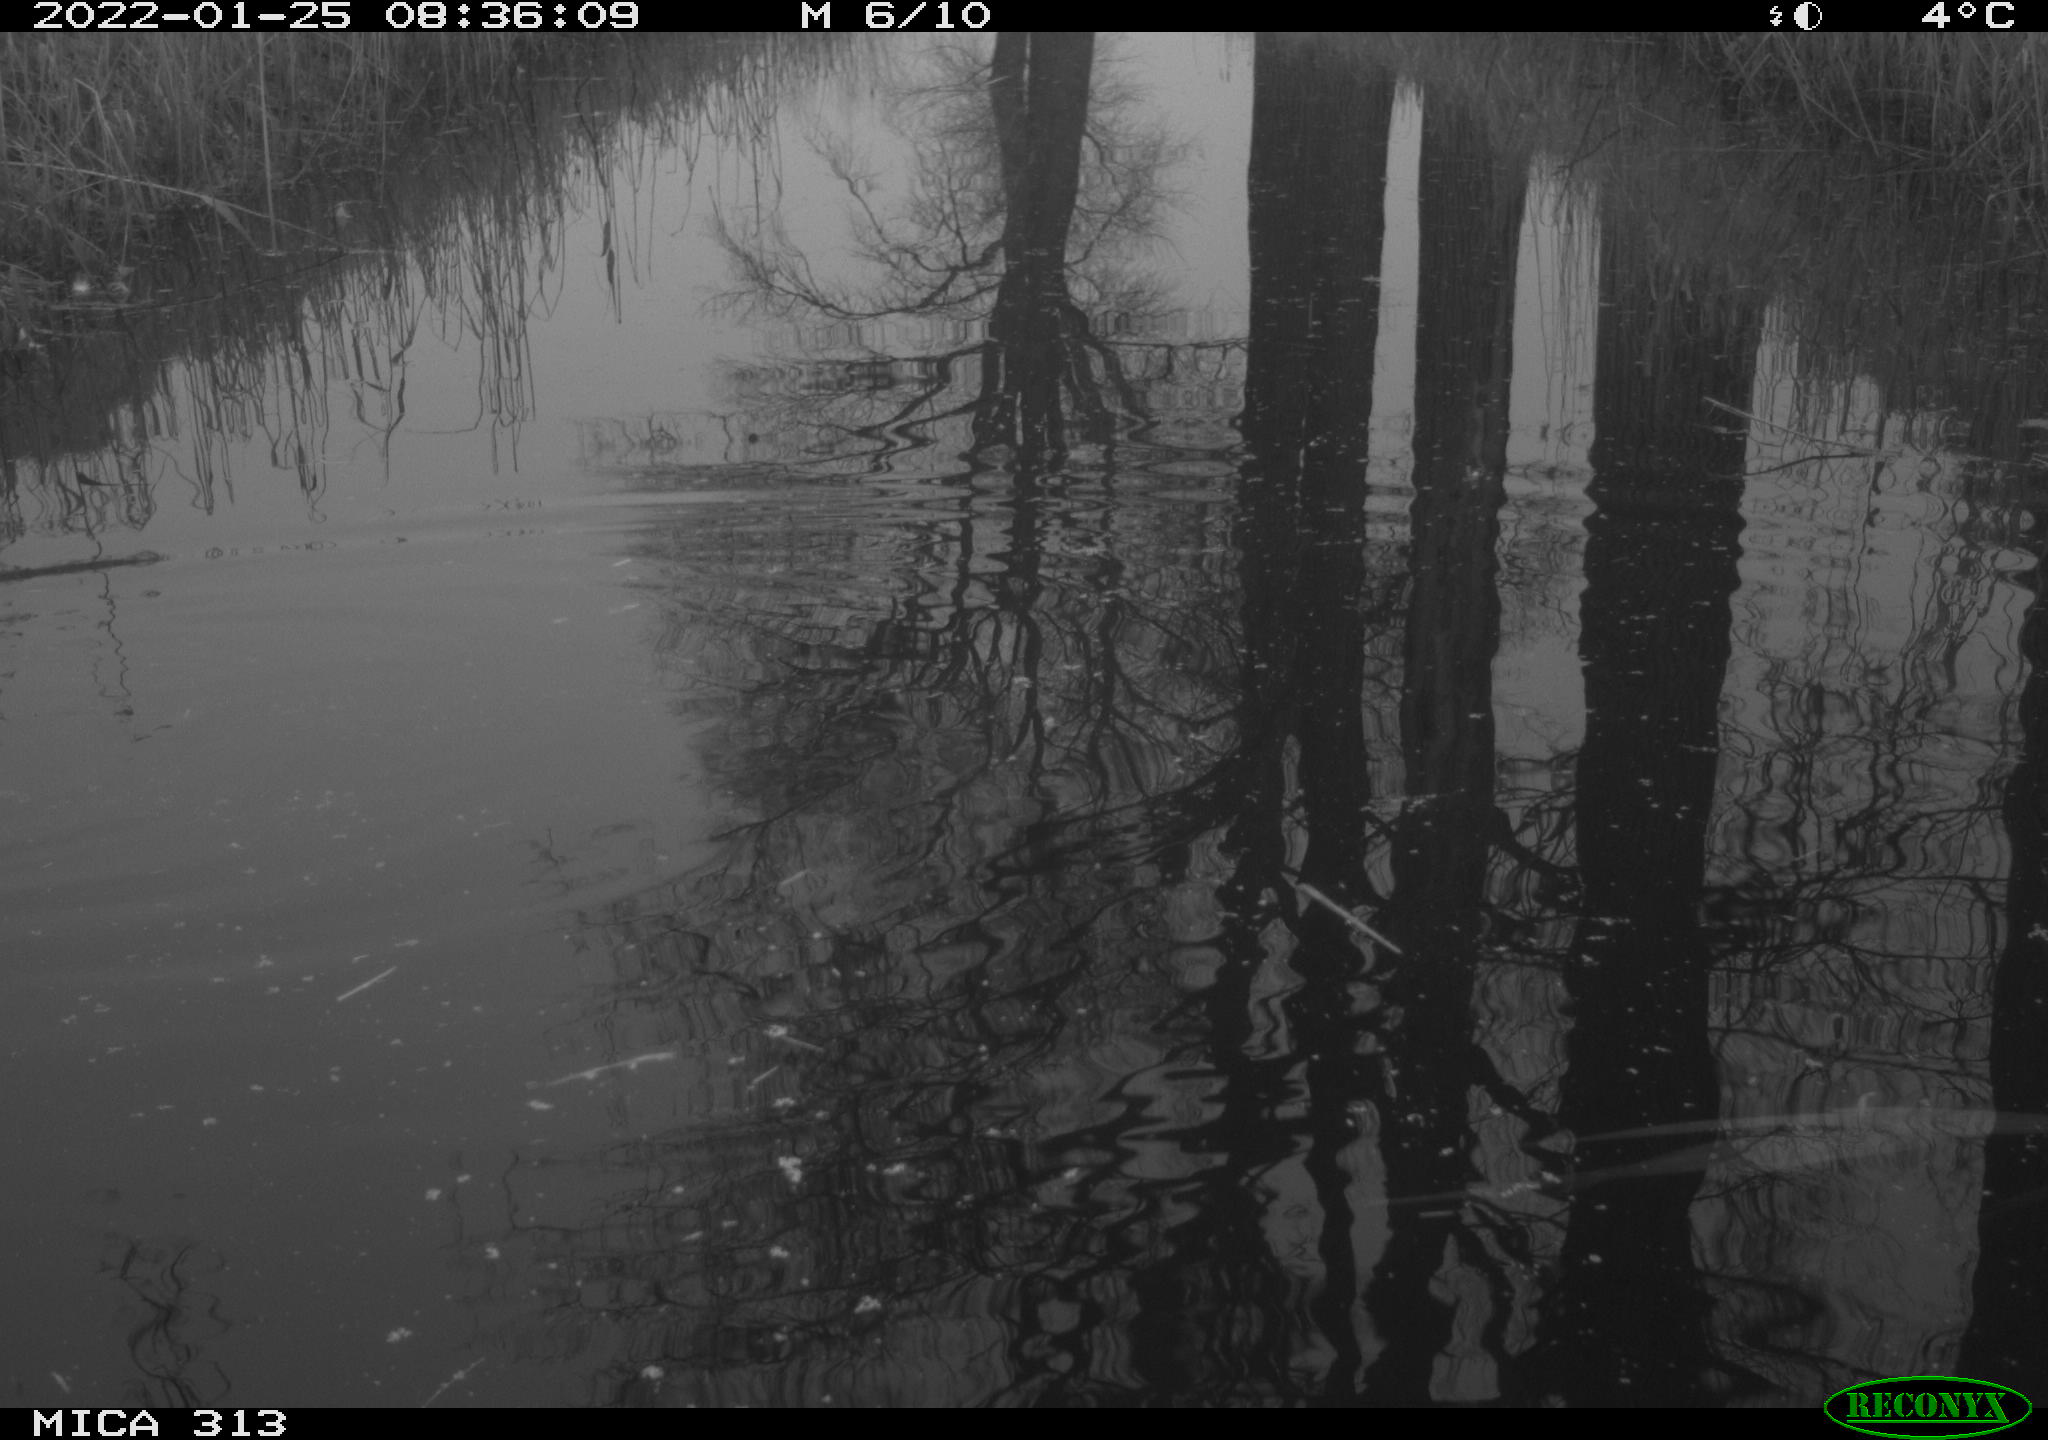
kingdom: Animalia
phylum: Chordata
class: Aves
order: Gruiformes
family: Rallidae
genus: Gallinula
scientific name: Gallinula chloropus
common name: Common moorhen
